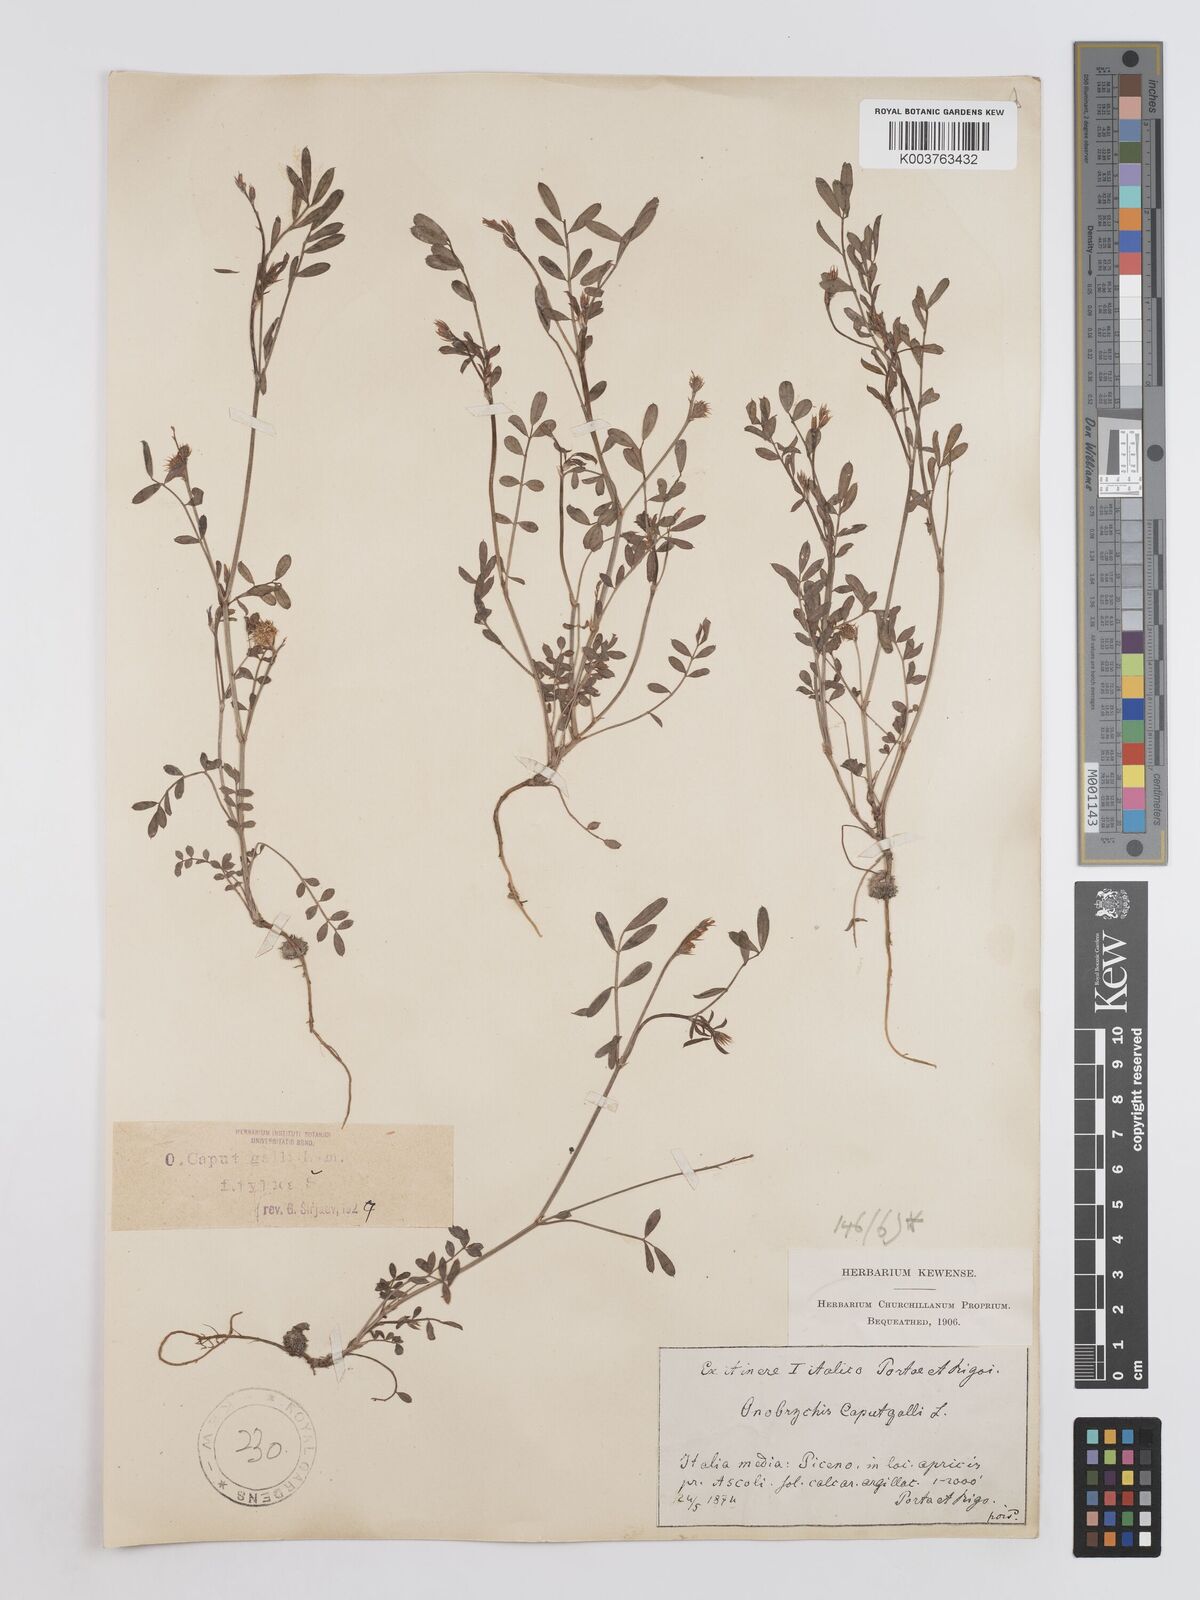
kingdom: Plantae
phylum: Tracheophyta
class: Magnoliopsida
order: Fabales
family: Fabaceae
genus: Onobrychis
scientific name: Onobrychis caput-galli
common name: Cockscomb sainfoin
